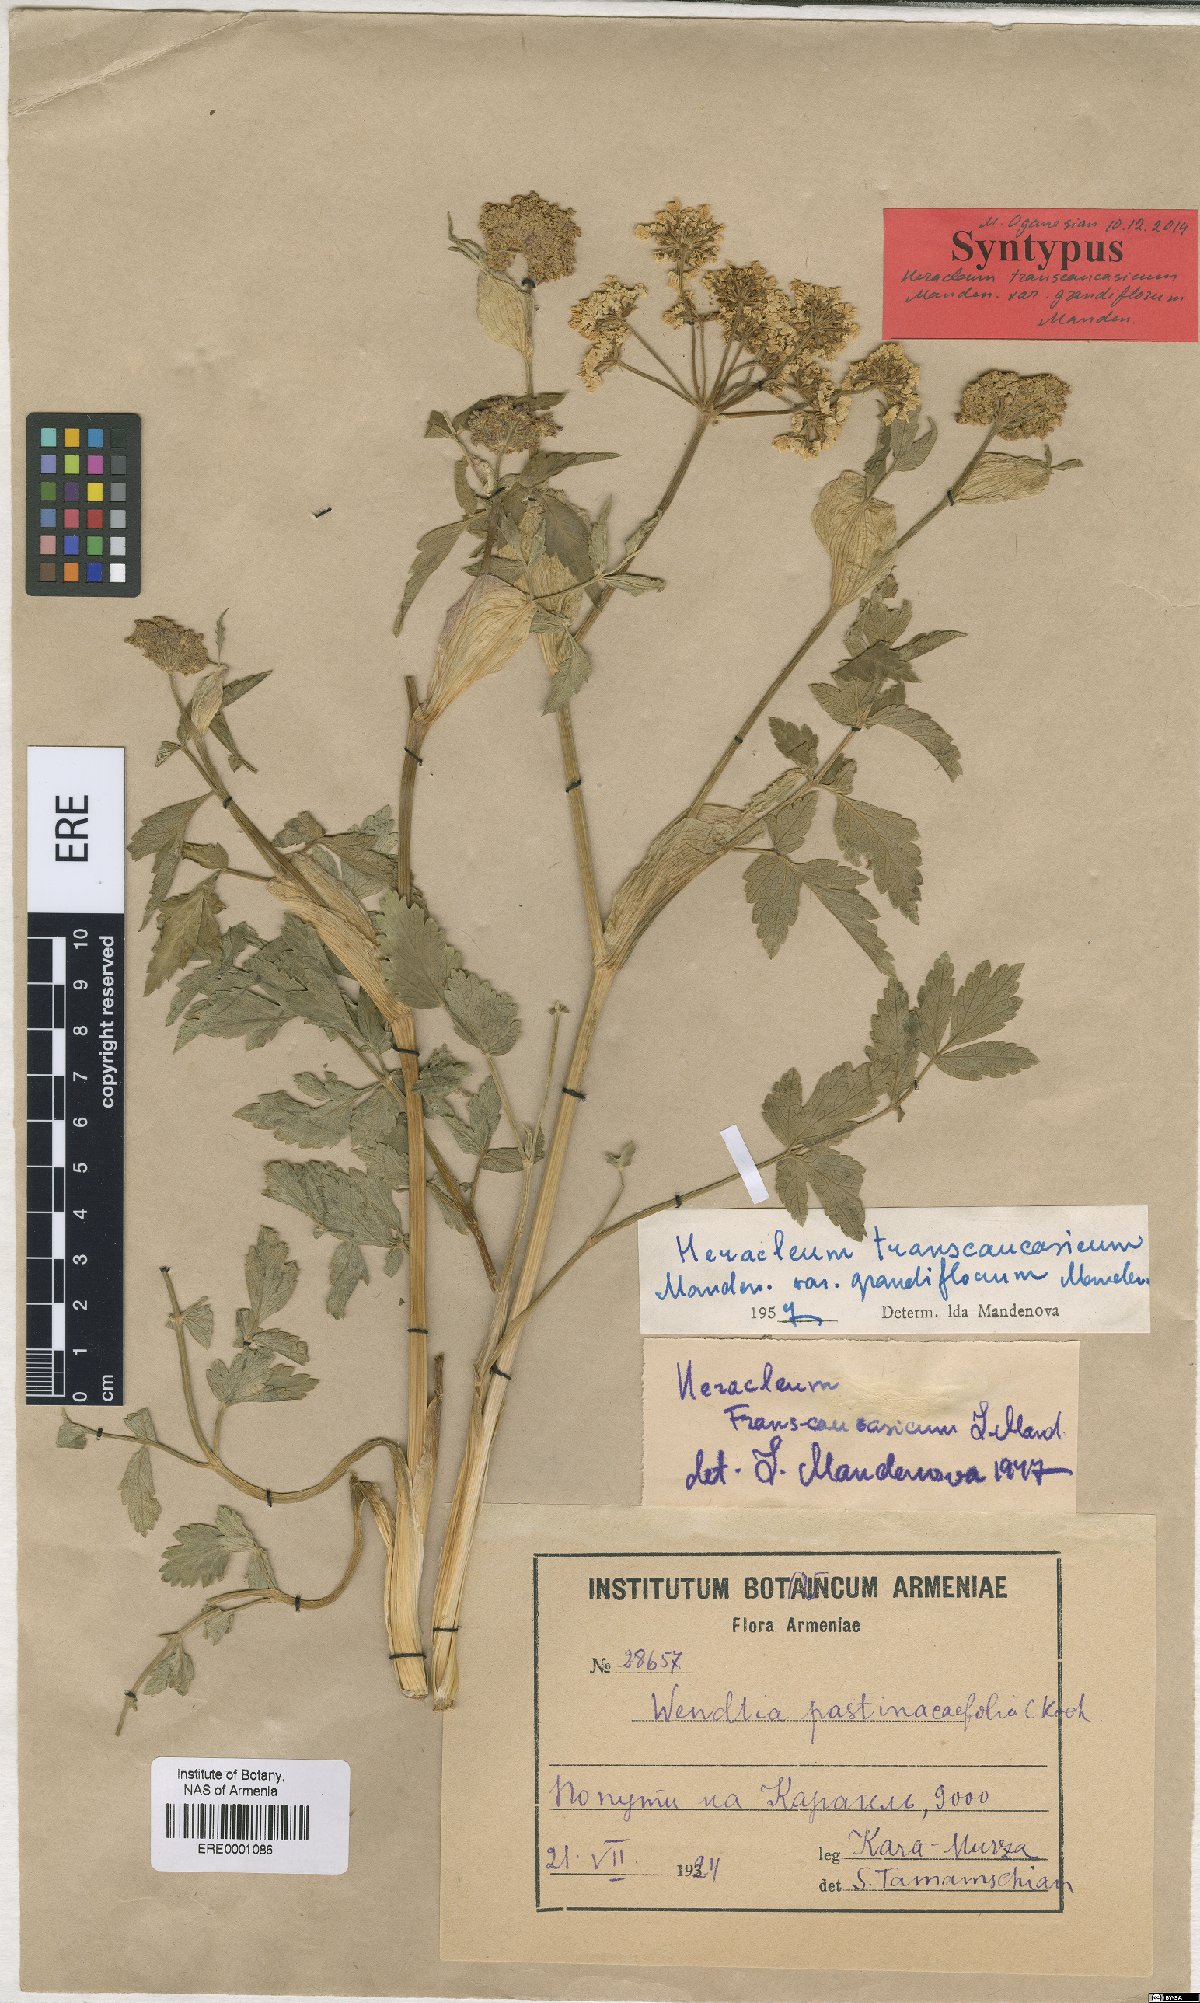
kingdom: Plantae
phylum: Tracheophyta
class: Magnoliopsida
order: Apiales
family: Apiaceae
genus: Heracleum
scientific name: Heracleum pastinacifolium
